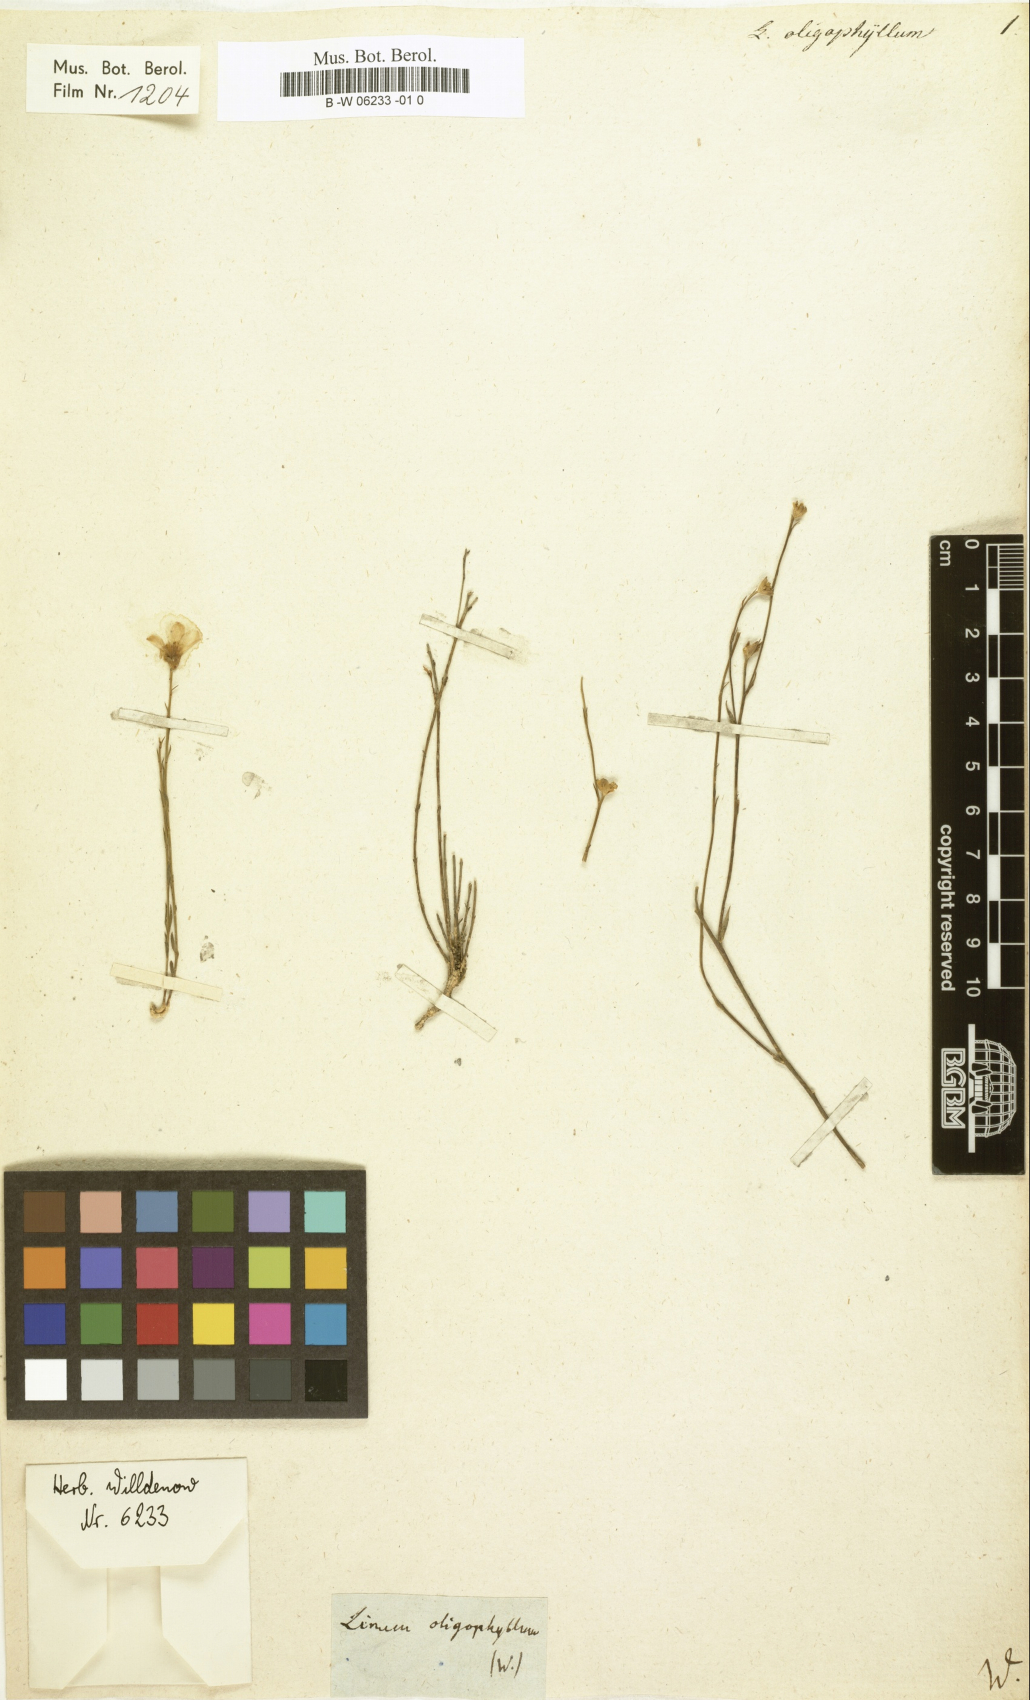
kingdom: Plantae
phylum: Tracheophyta
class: Magnoliopsida
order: Malpighiales
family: Linaceae
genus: Linum
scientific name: Linum
